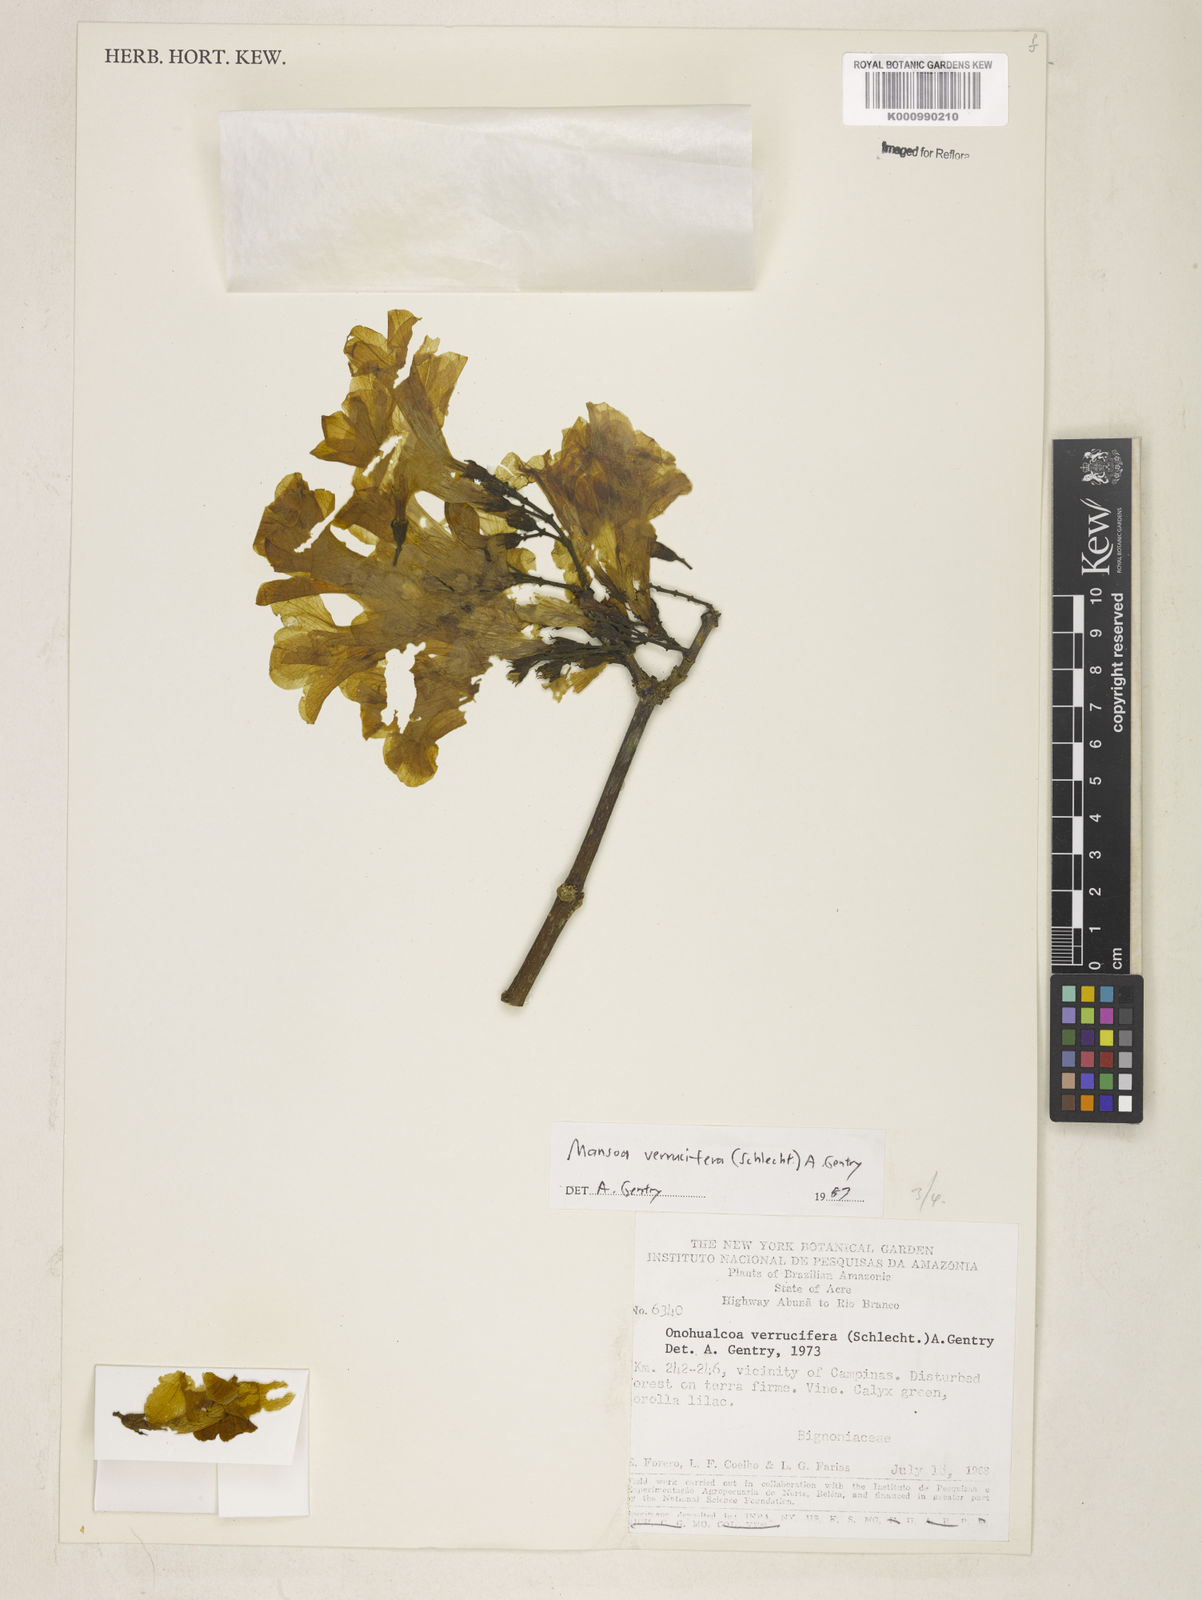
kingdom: Plantae
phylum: Tracheophyta
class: Magnoliopsida
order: Lamiales
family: Bignoniaceae
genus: Mansoa
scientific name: Mansoa verrucifera
